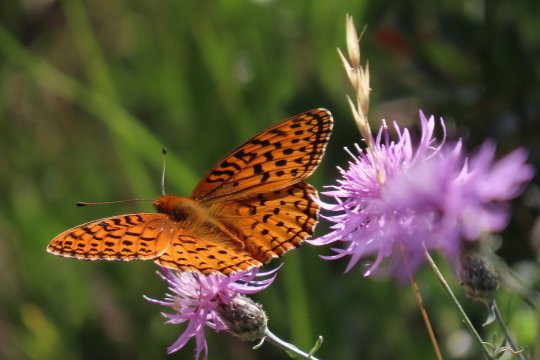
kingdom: Animalia
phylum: Arthropoda
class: Insecta
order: Lepidoptera
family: Nymphalidae
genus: Speyeria
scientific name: Speyeria aphrodite
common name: Aphrodite Fritillary
